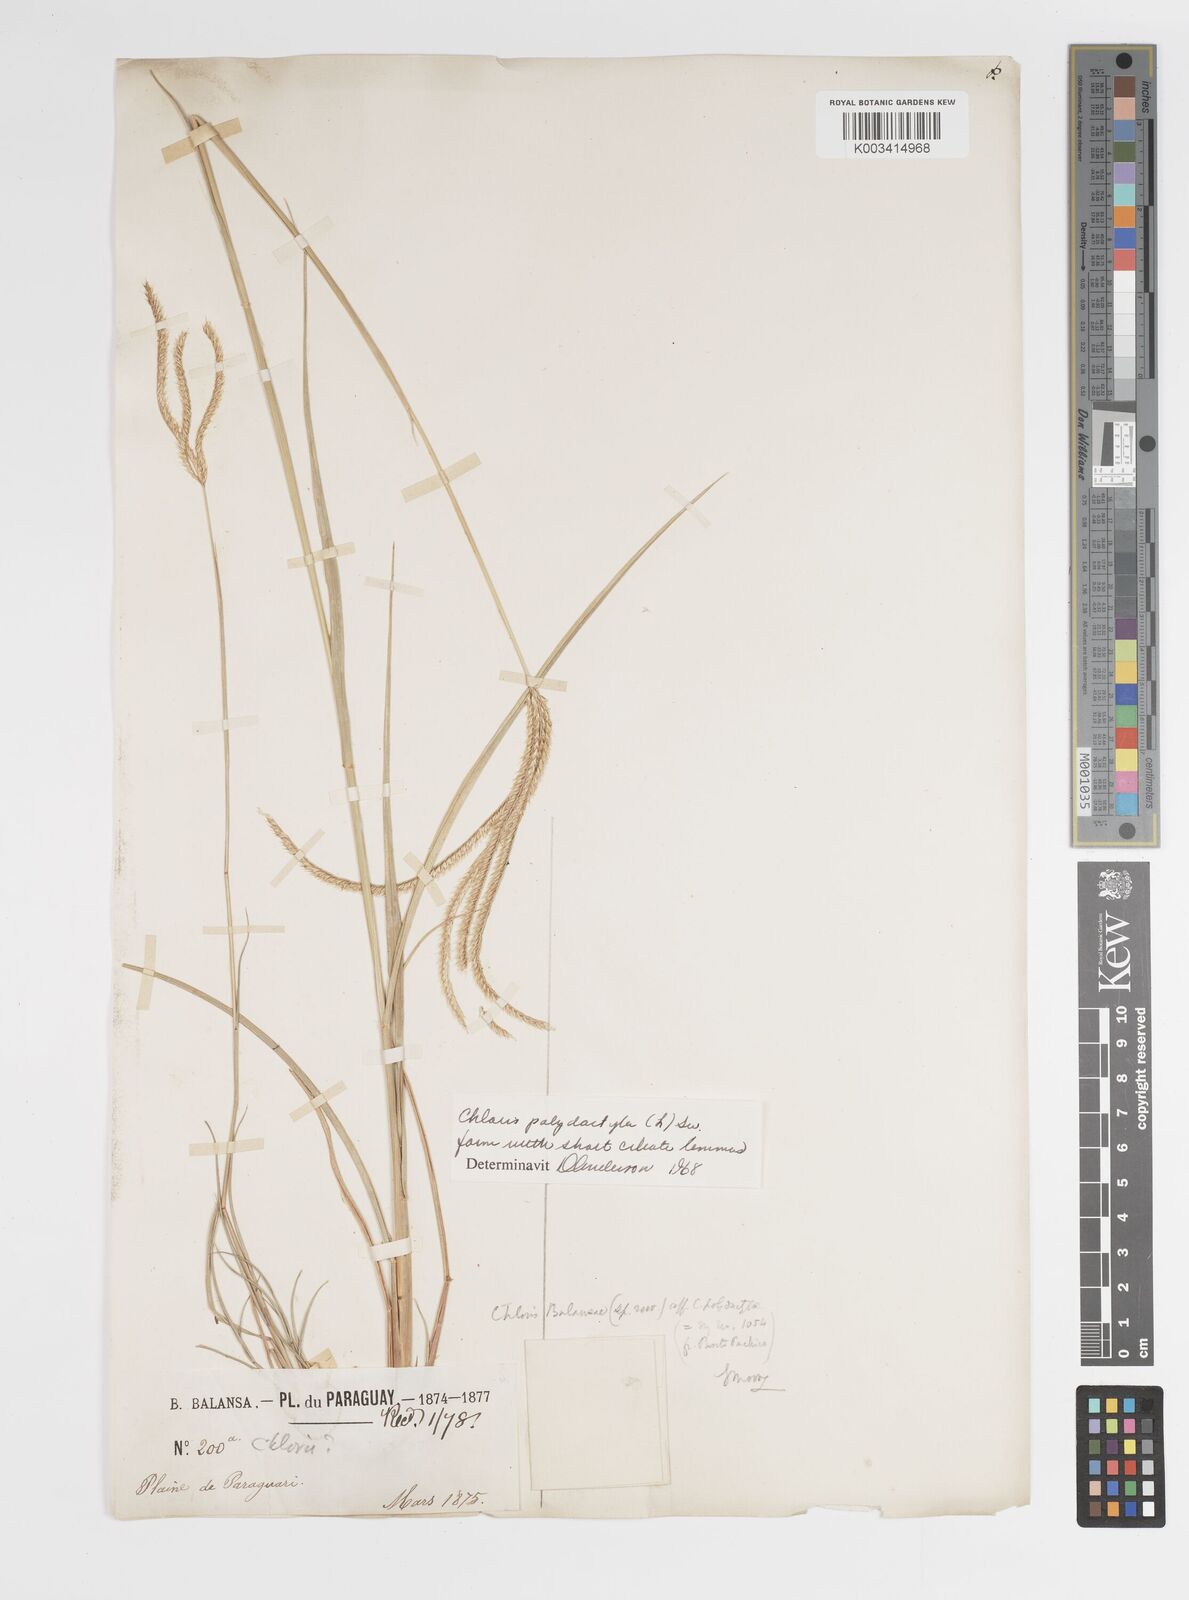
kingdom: Plantae
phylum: Tracheophyta
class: Liliopsida
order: Poales
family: Poaceae
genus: Stapfochloa
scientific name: Stapfochloa elata
